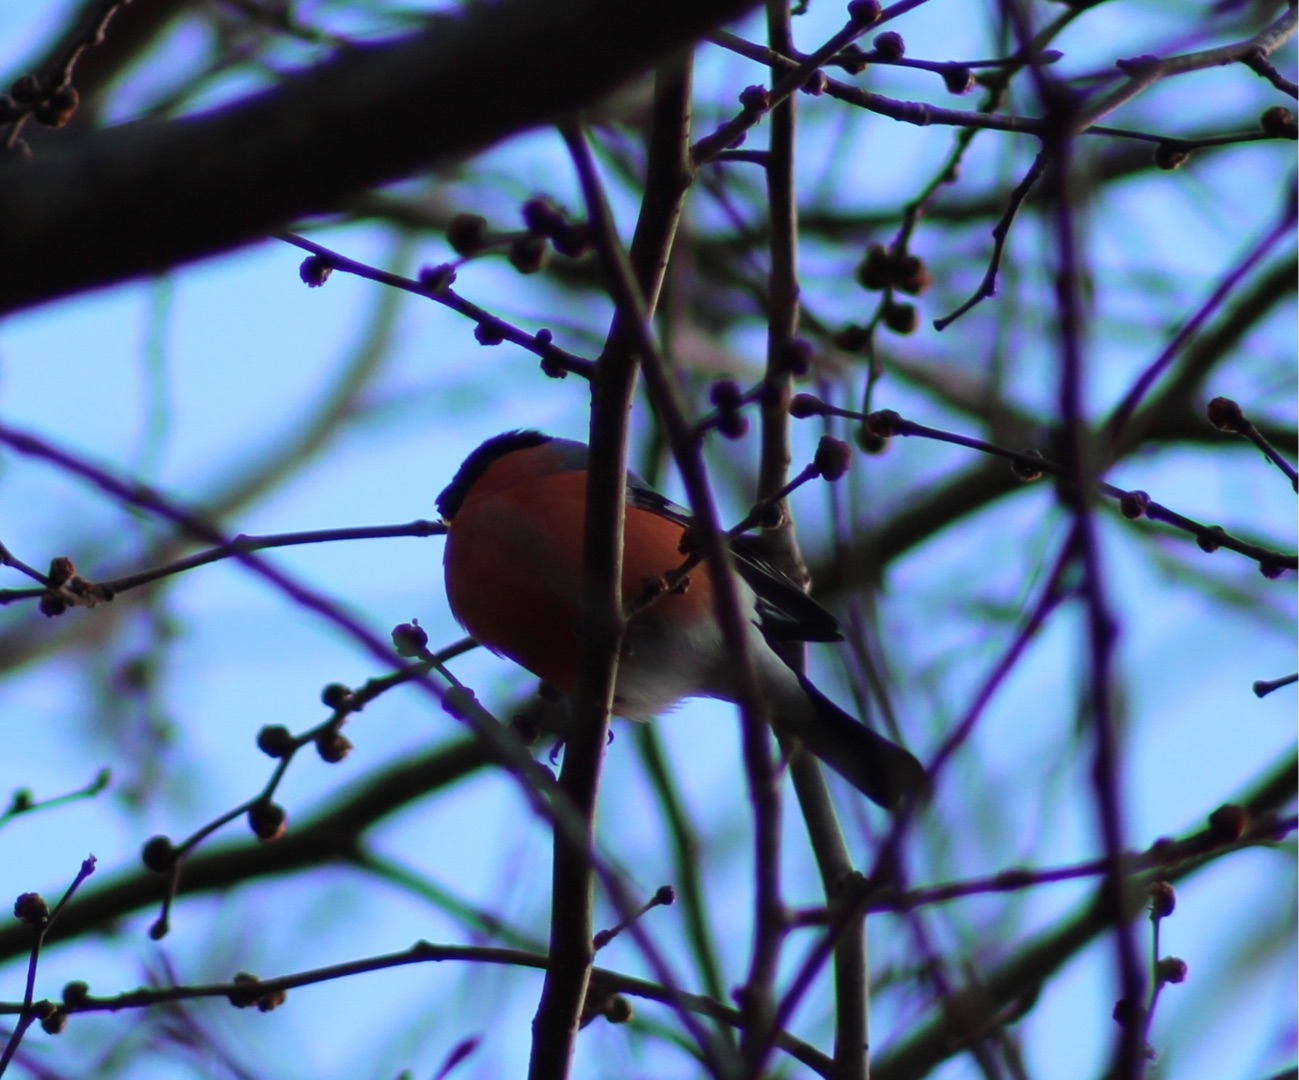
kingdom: Animalia
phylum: Chordata
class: Aves
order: Passeriformes
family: Fringillidae
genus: Pyrrhula
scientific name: Pyrrhula pyrrhula
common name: Dompap
